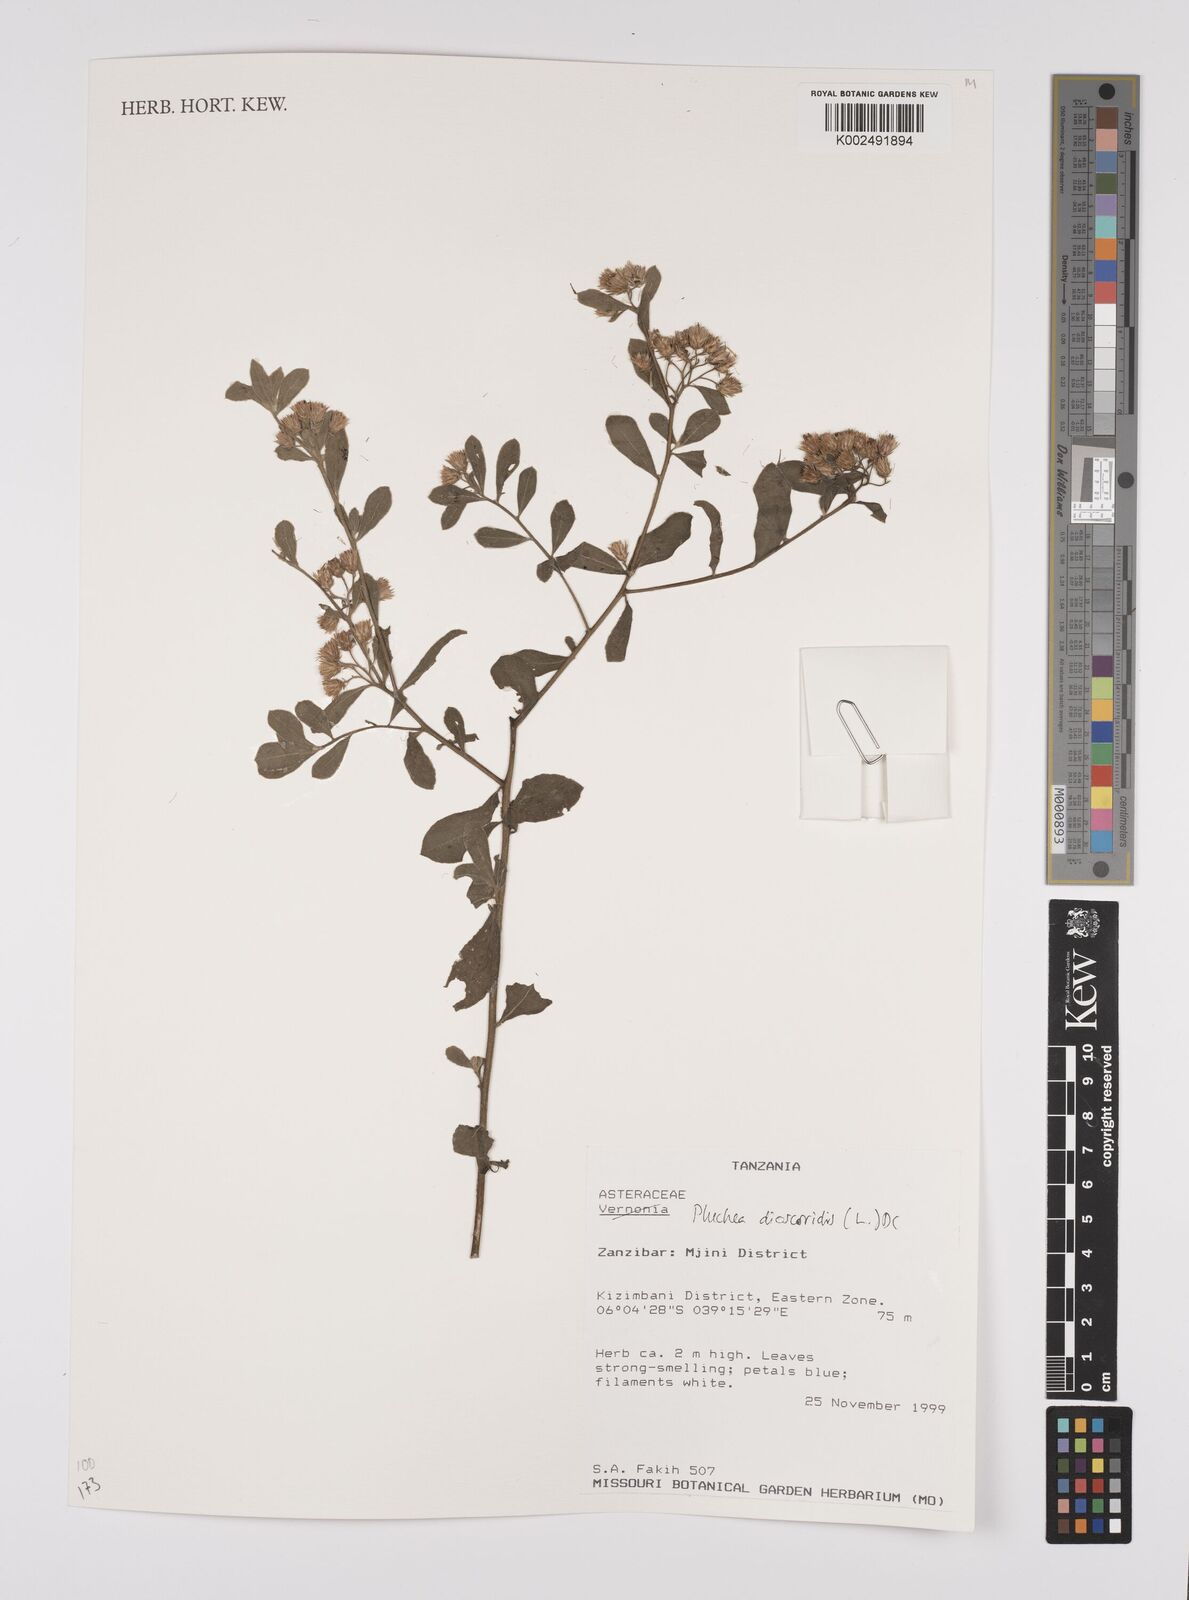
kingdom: Plantae
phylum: Tracheophyta
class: Magnoliopsida
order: Asterales
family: Asteraceae
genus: Pluchea
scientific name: Pluchea dioscoridis
